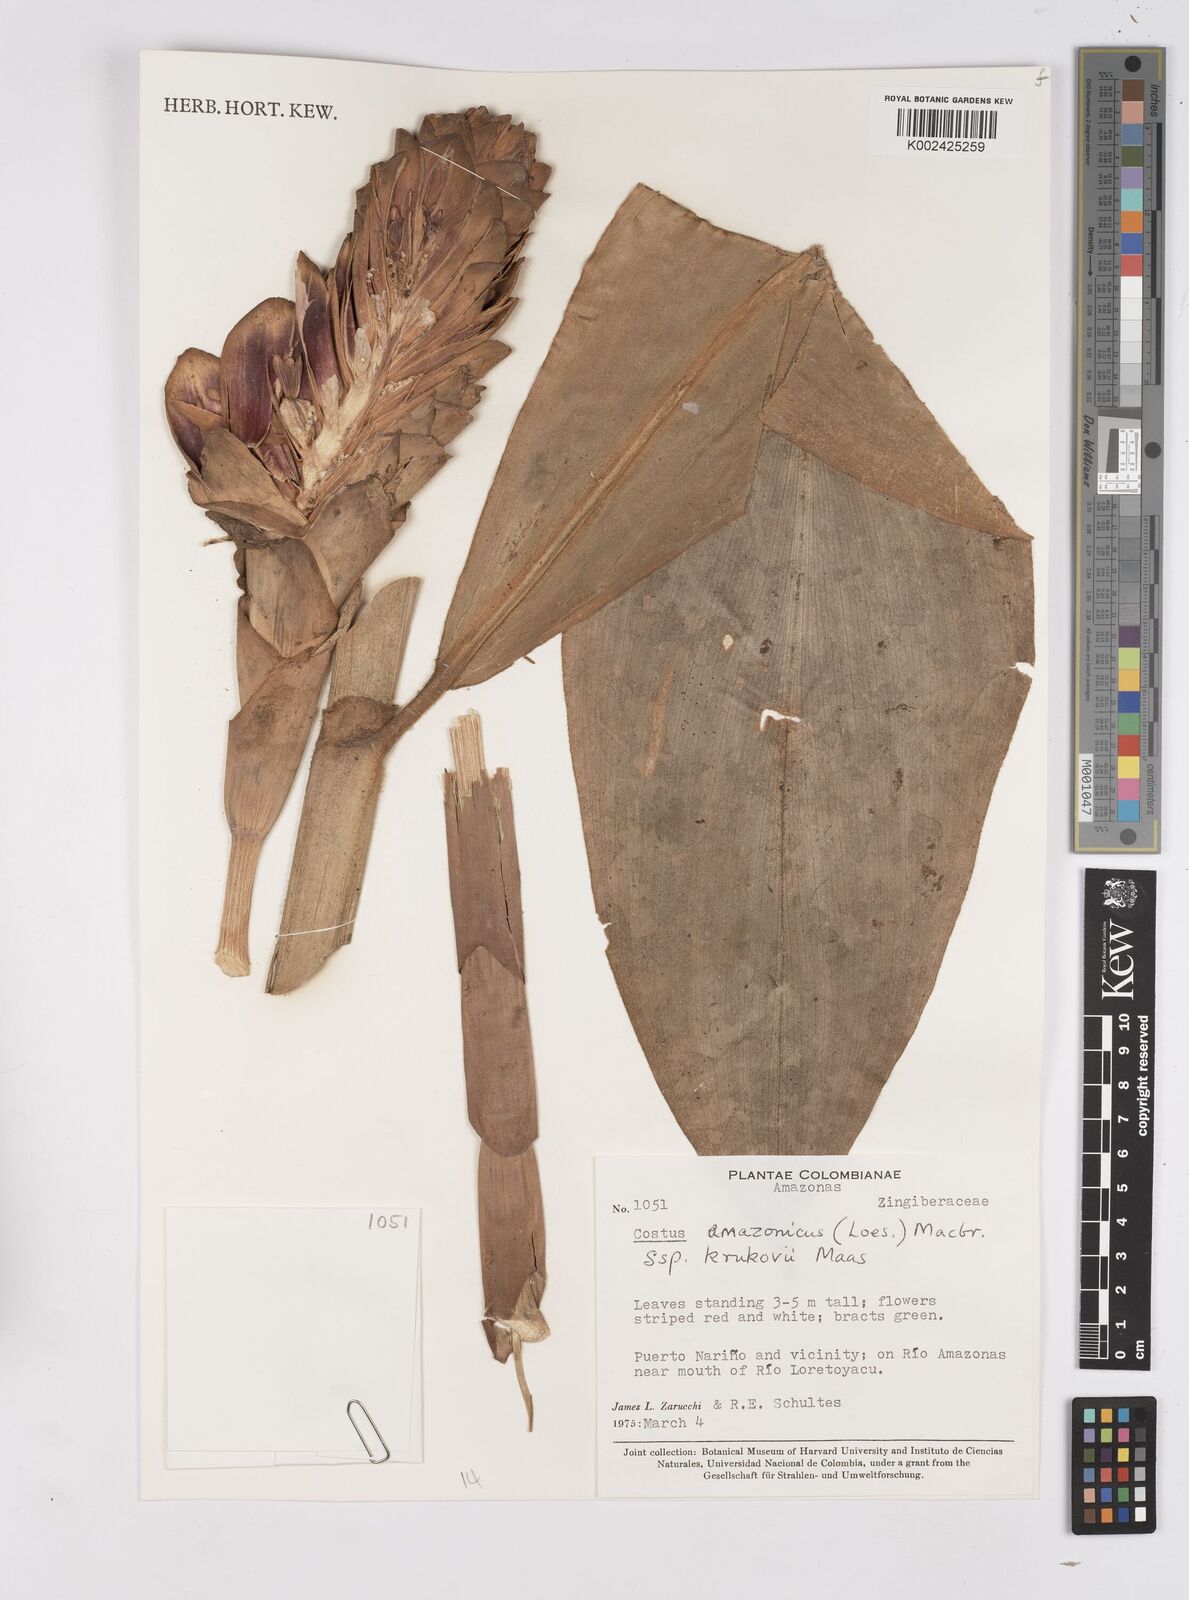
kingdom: Plantae
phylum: Tracheophyta
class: Liliopsida
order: Zingiberales
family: Costaceae
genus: Costus
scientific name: Costus amazonicus
